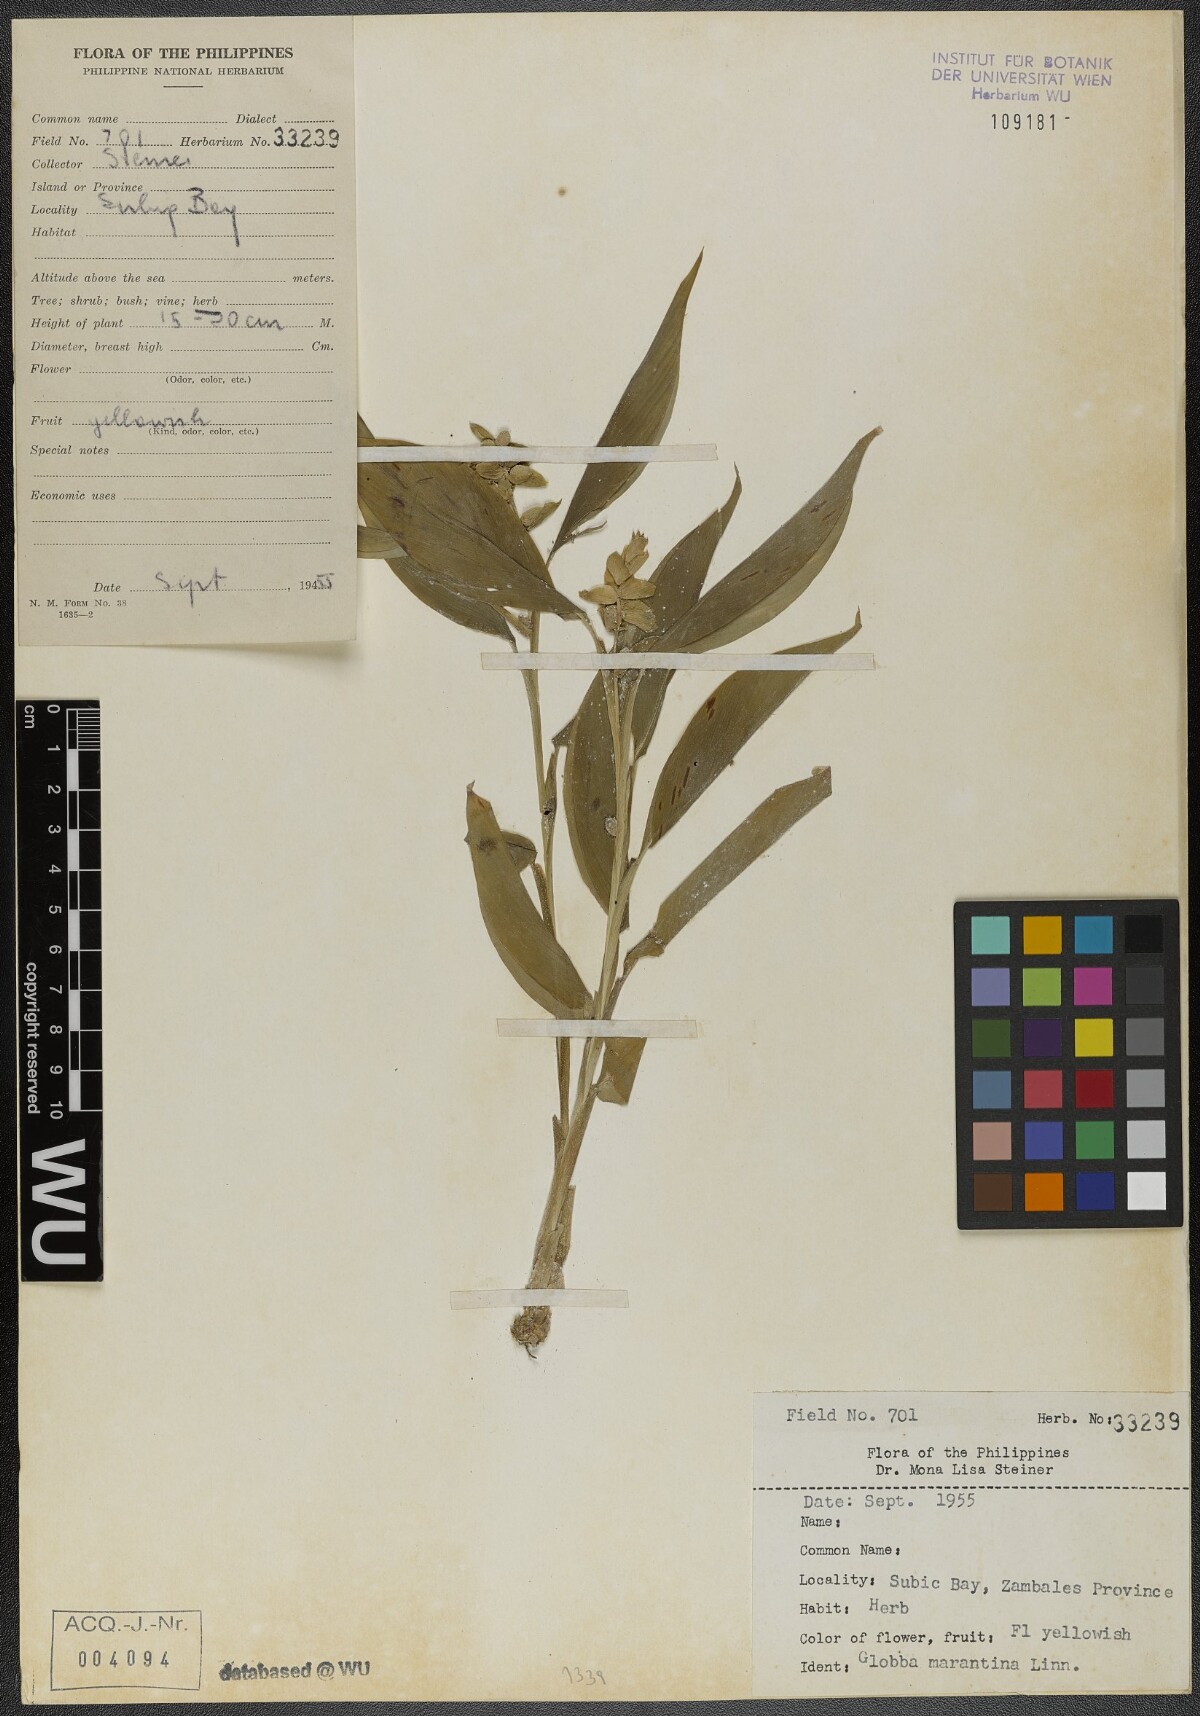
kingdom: Plantae
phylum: Tracheophyta
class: Liliopsida
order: Zingiberales
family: Zingiberaceae
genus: Globba
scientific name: Globba marantina
